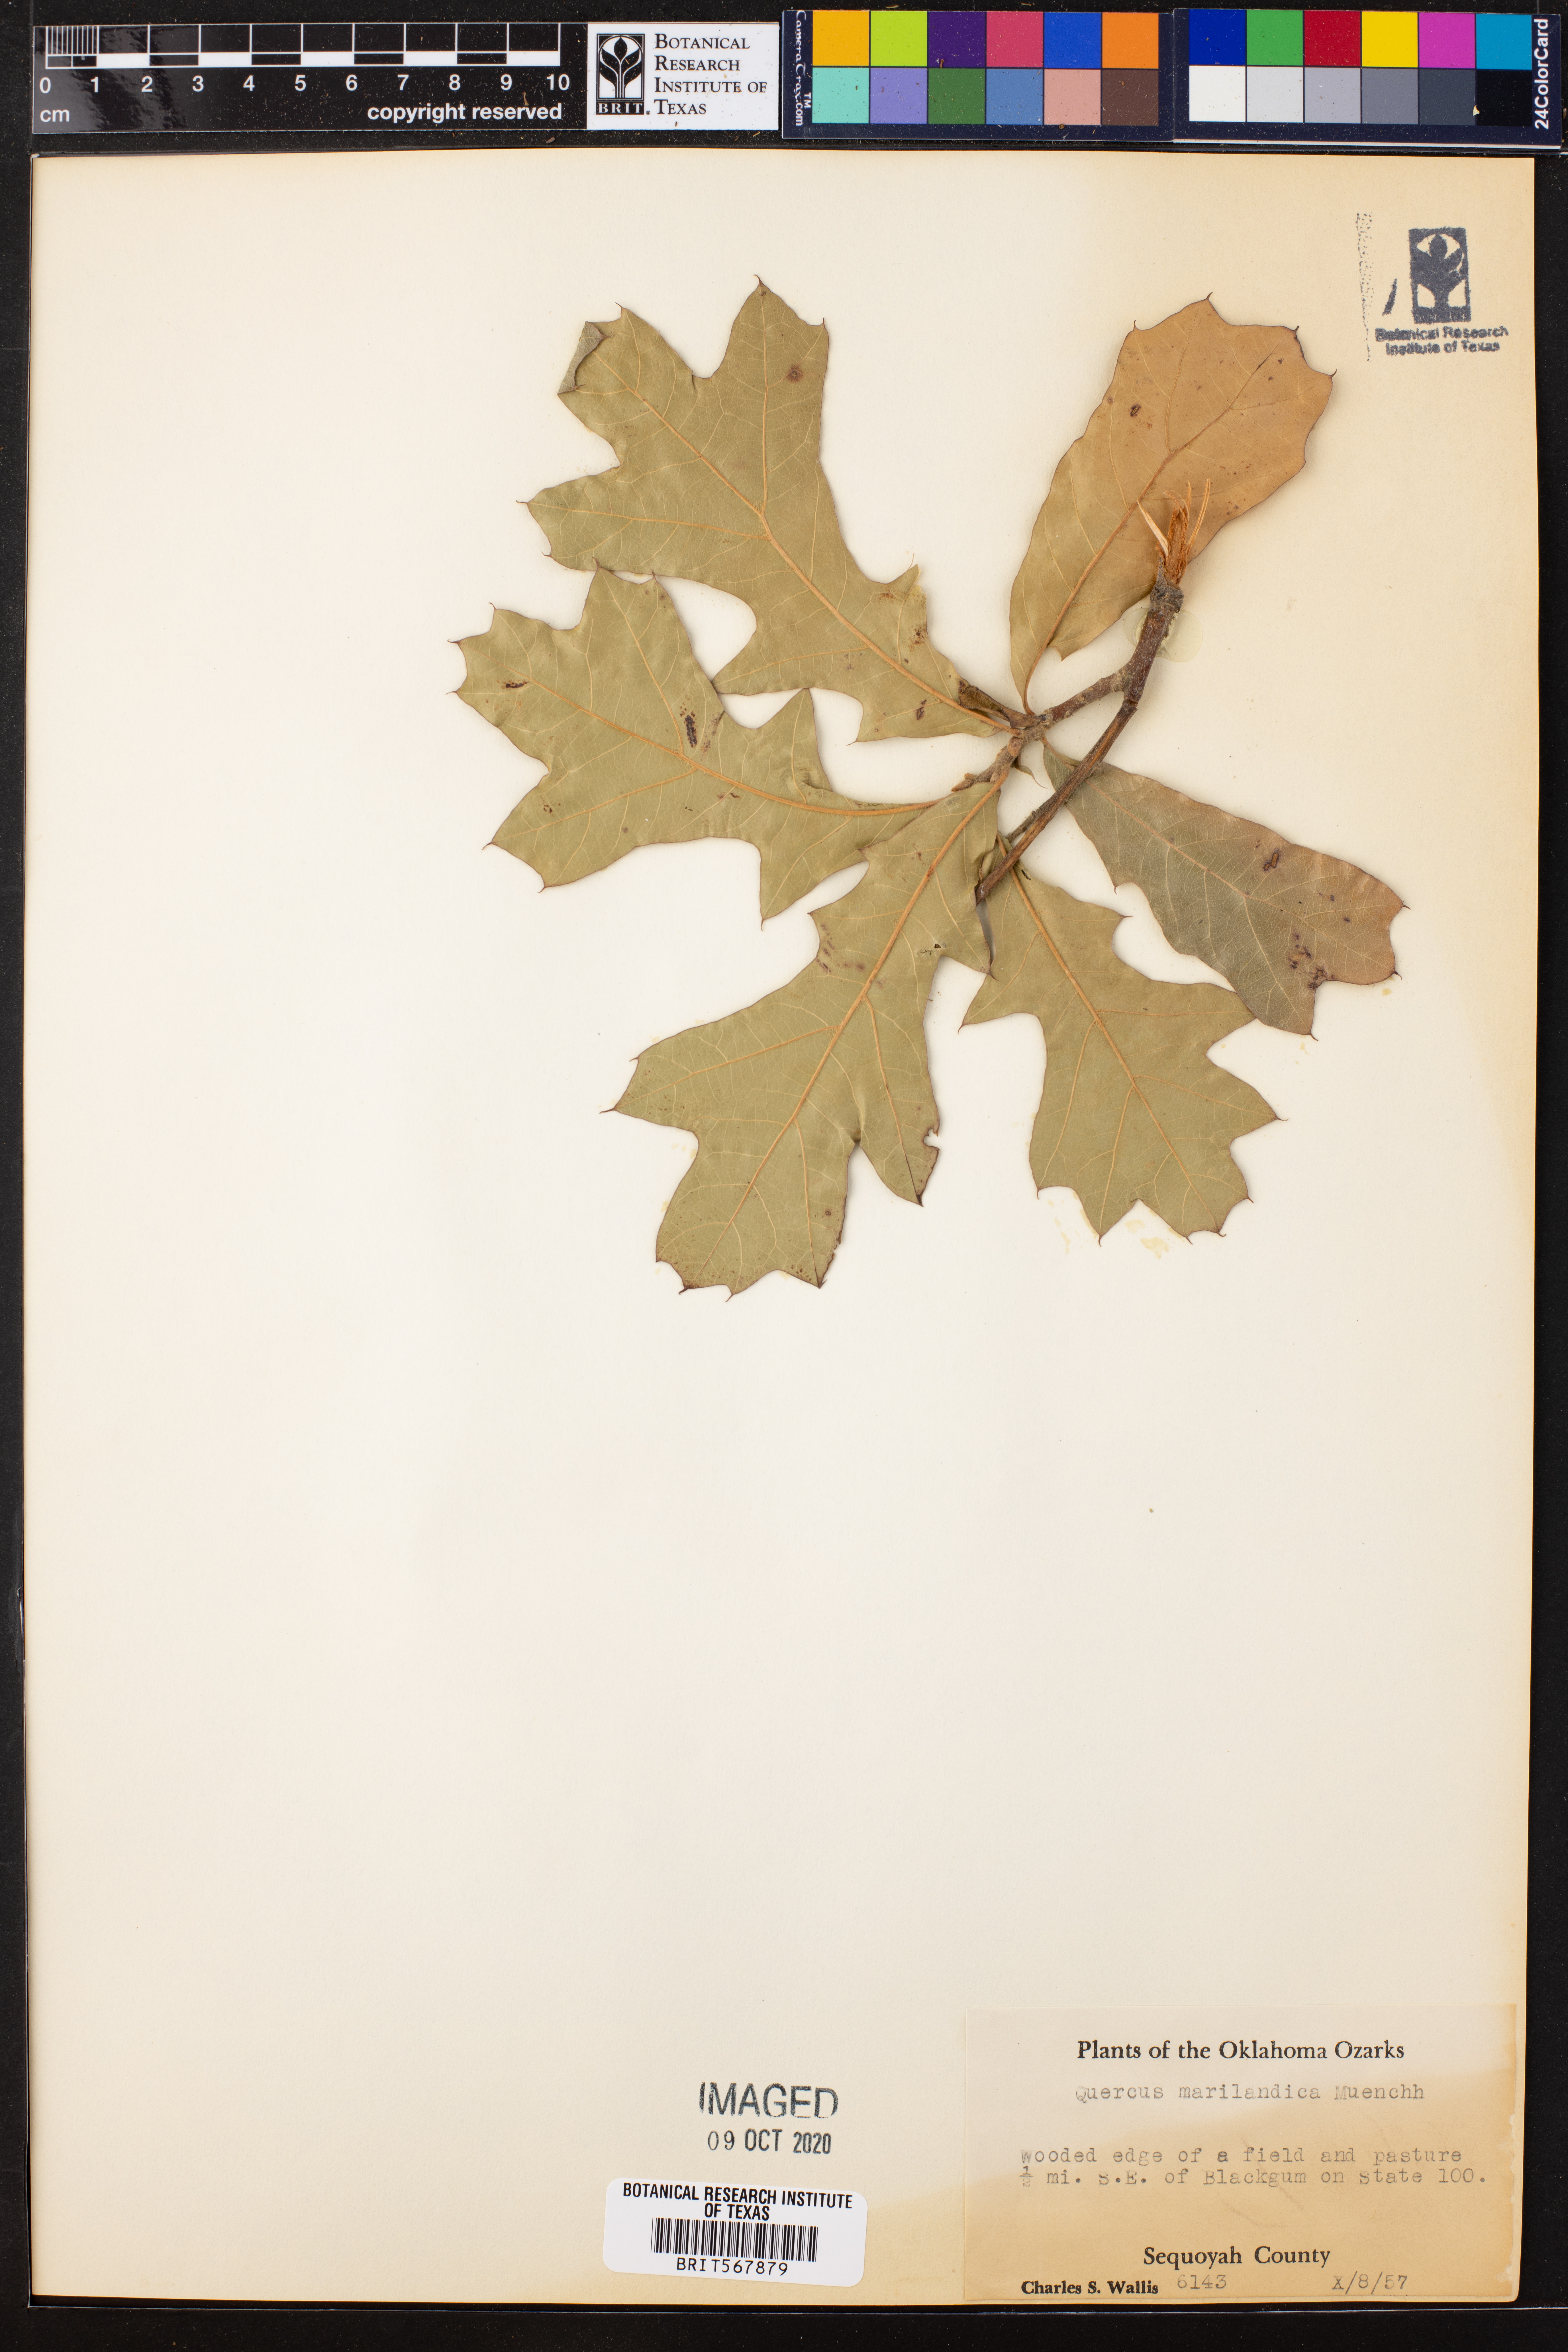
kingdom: Plantae
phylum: Tracheophyta
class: Magnoliopsida
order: Fagales
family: Fagaceae
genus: Quercus
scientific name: Quercus marilandica
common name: Blackjack oak
